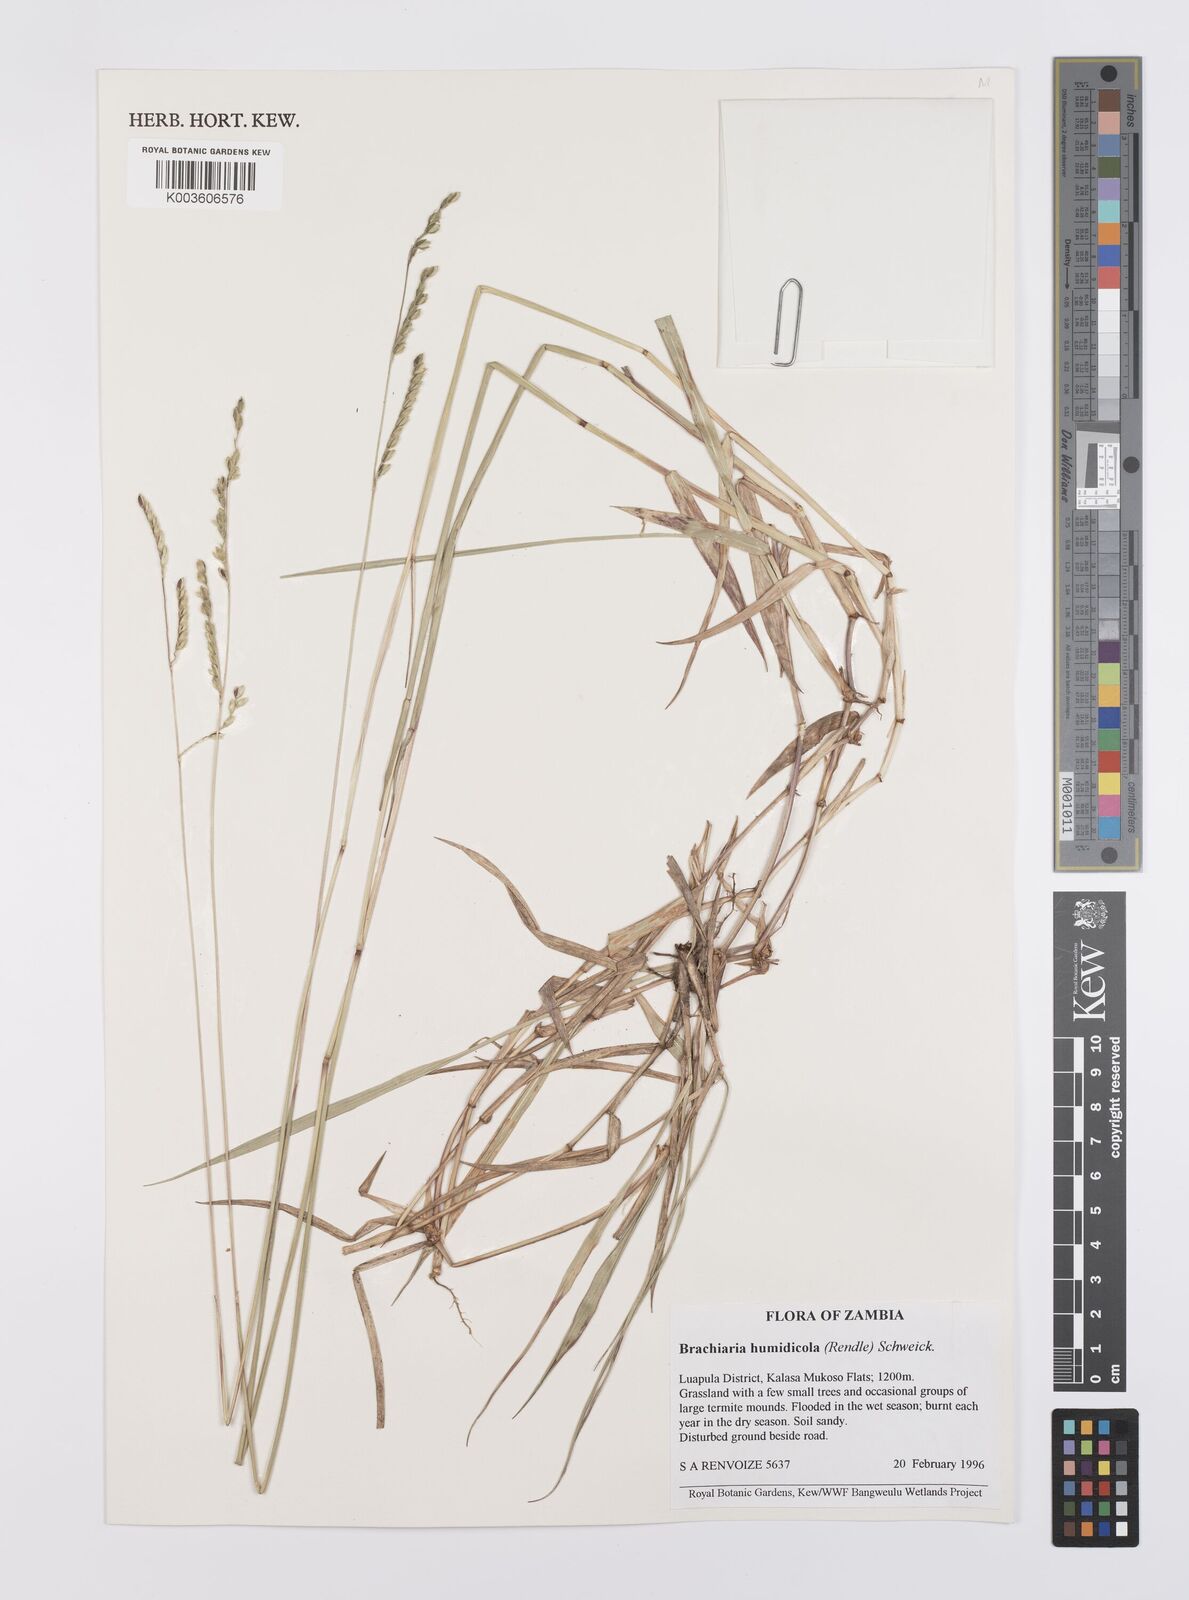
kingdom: Plantae
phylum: Tracheophyta
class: Liliopsida
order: Poales
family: Poaceae
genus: Urochloa
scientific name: Urochloa dictyoneura
